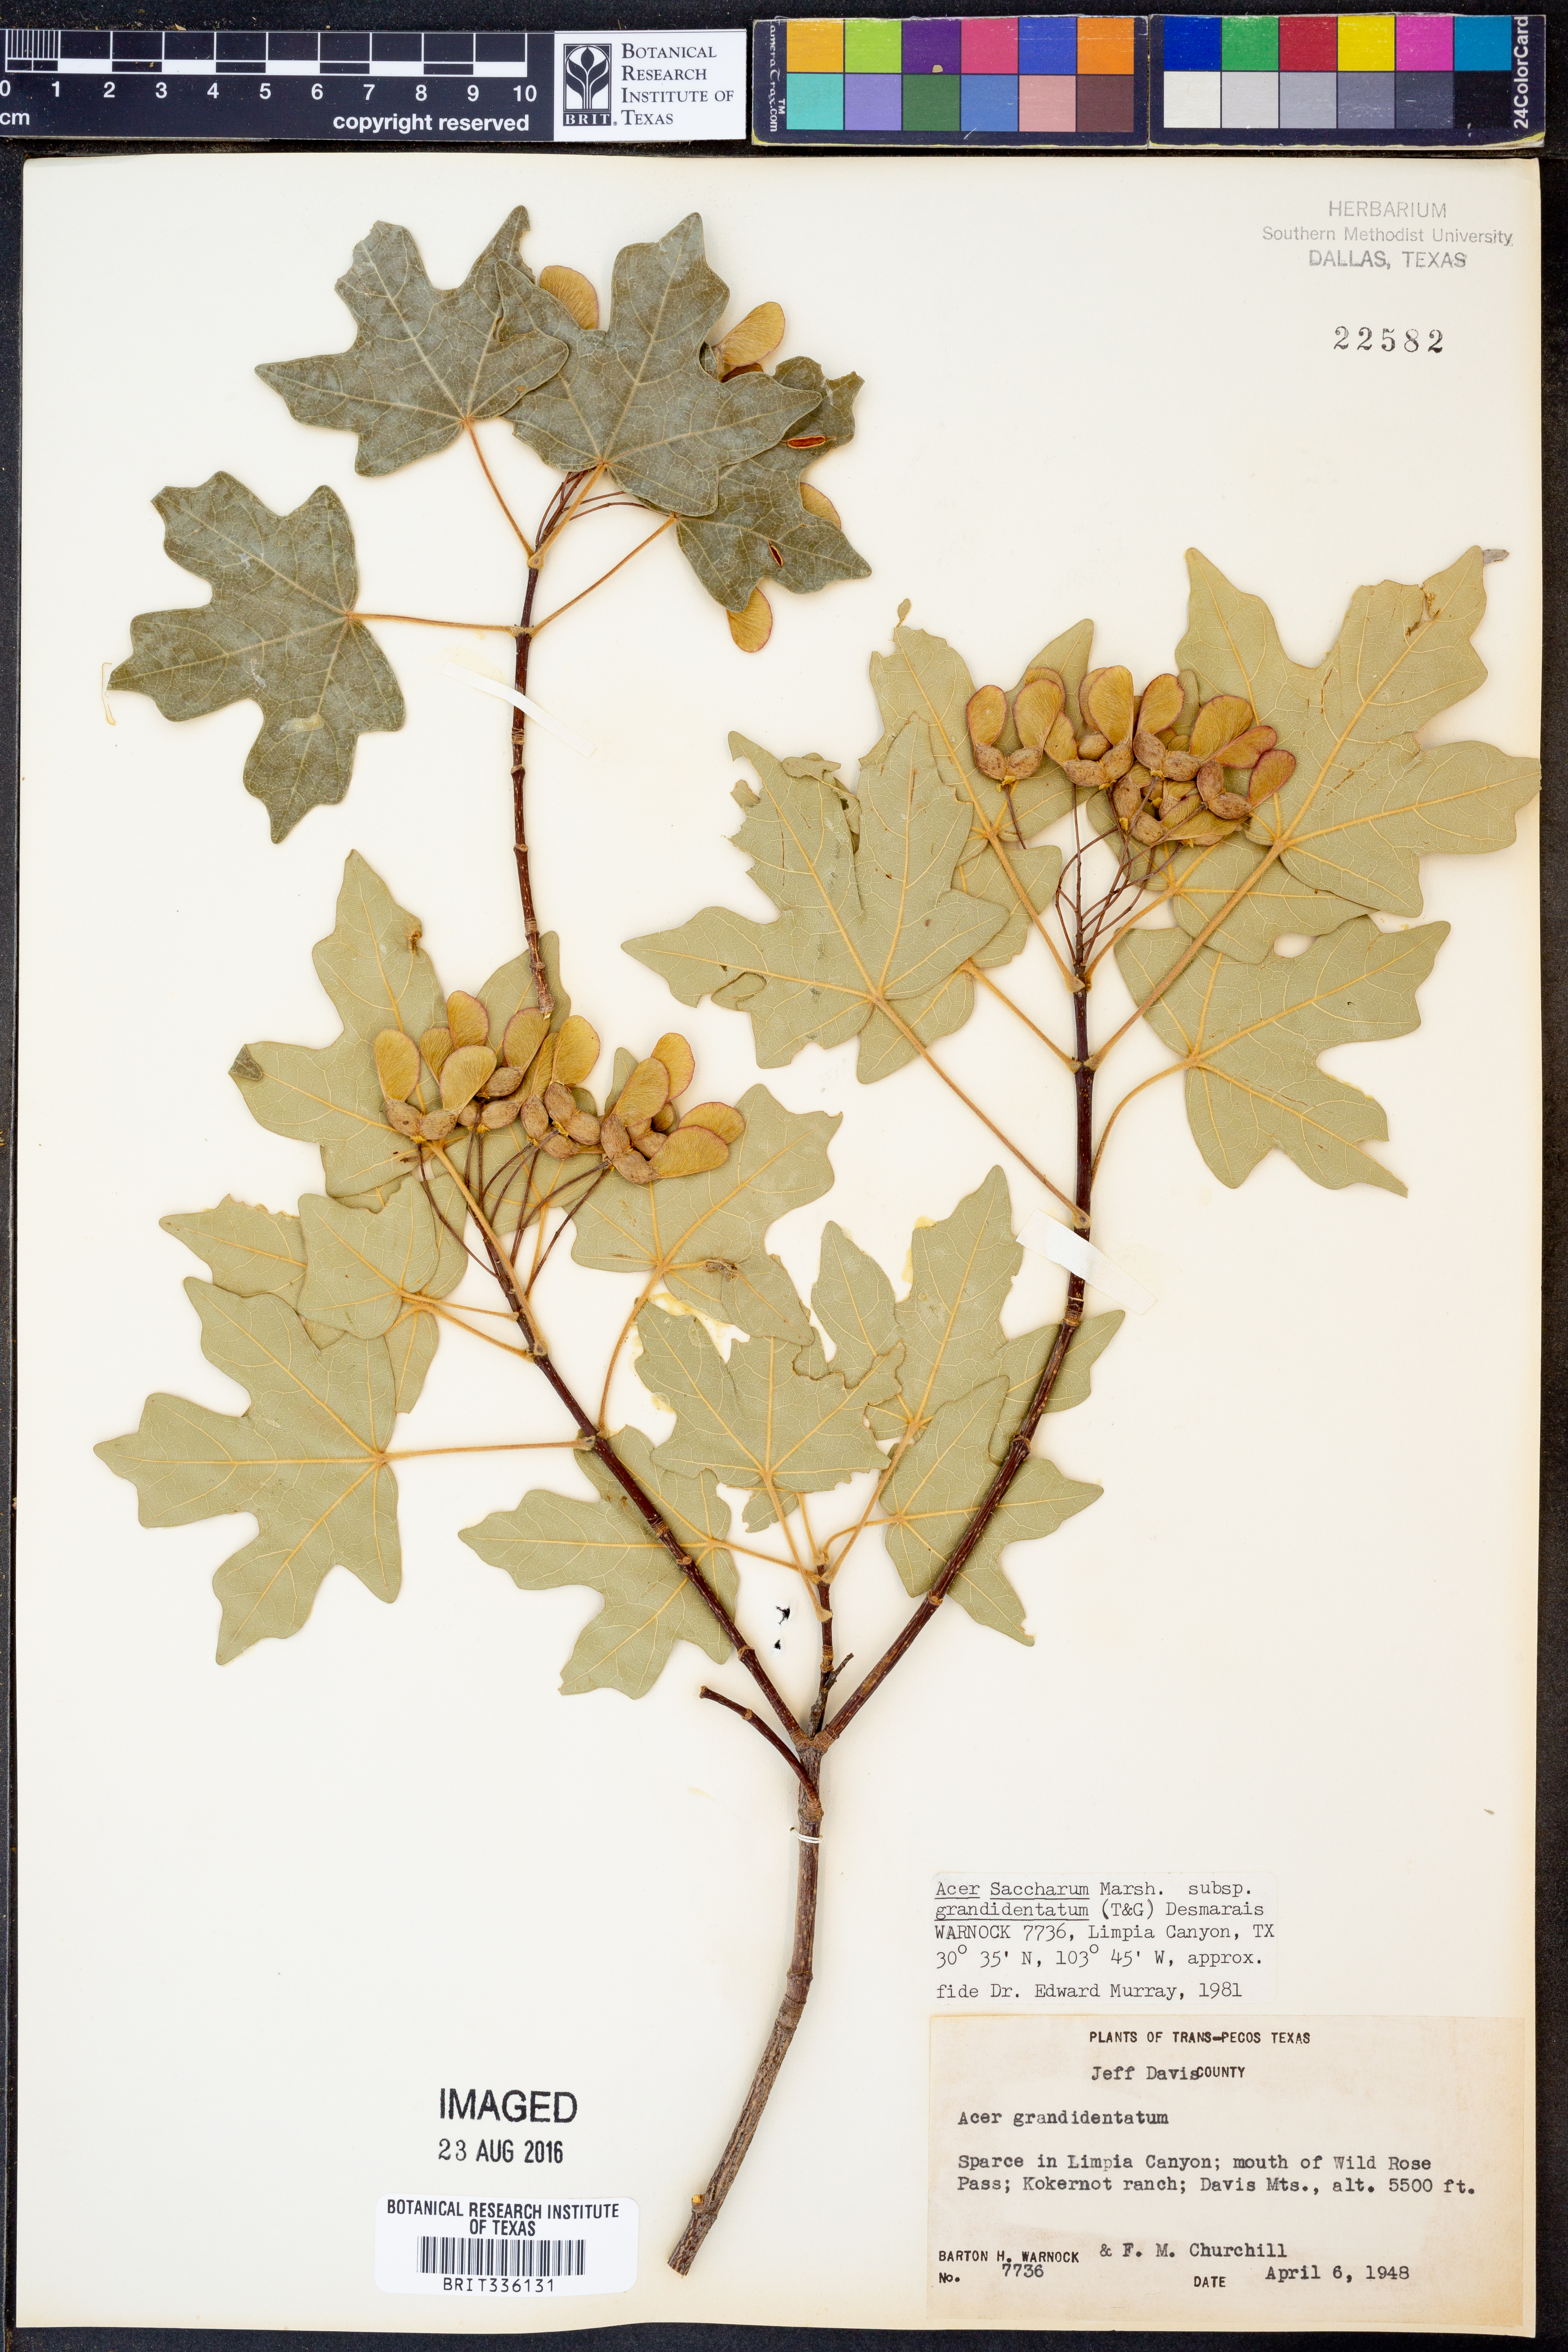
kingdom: Plantae
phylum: Tracheophyta
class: Magnoliopsida
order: Sapindales
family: Sapindaceae
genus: Acer
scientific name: Acer grandidentatum
